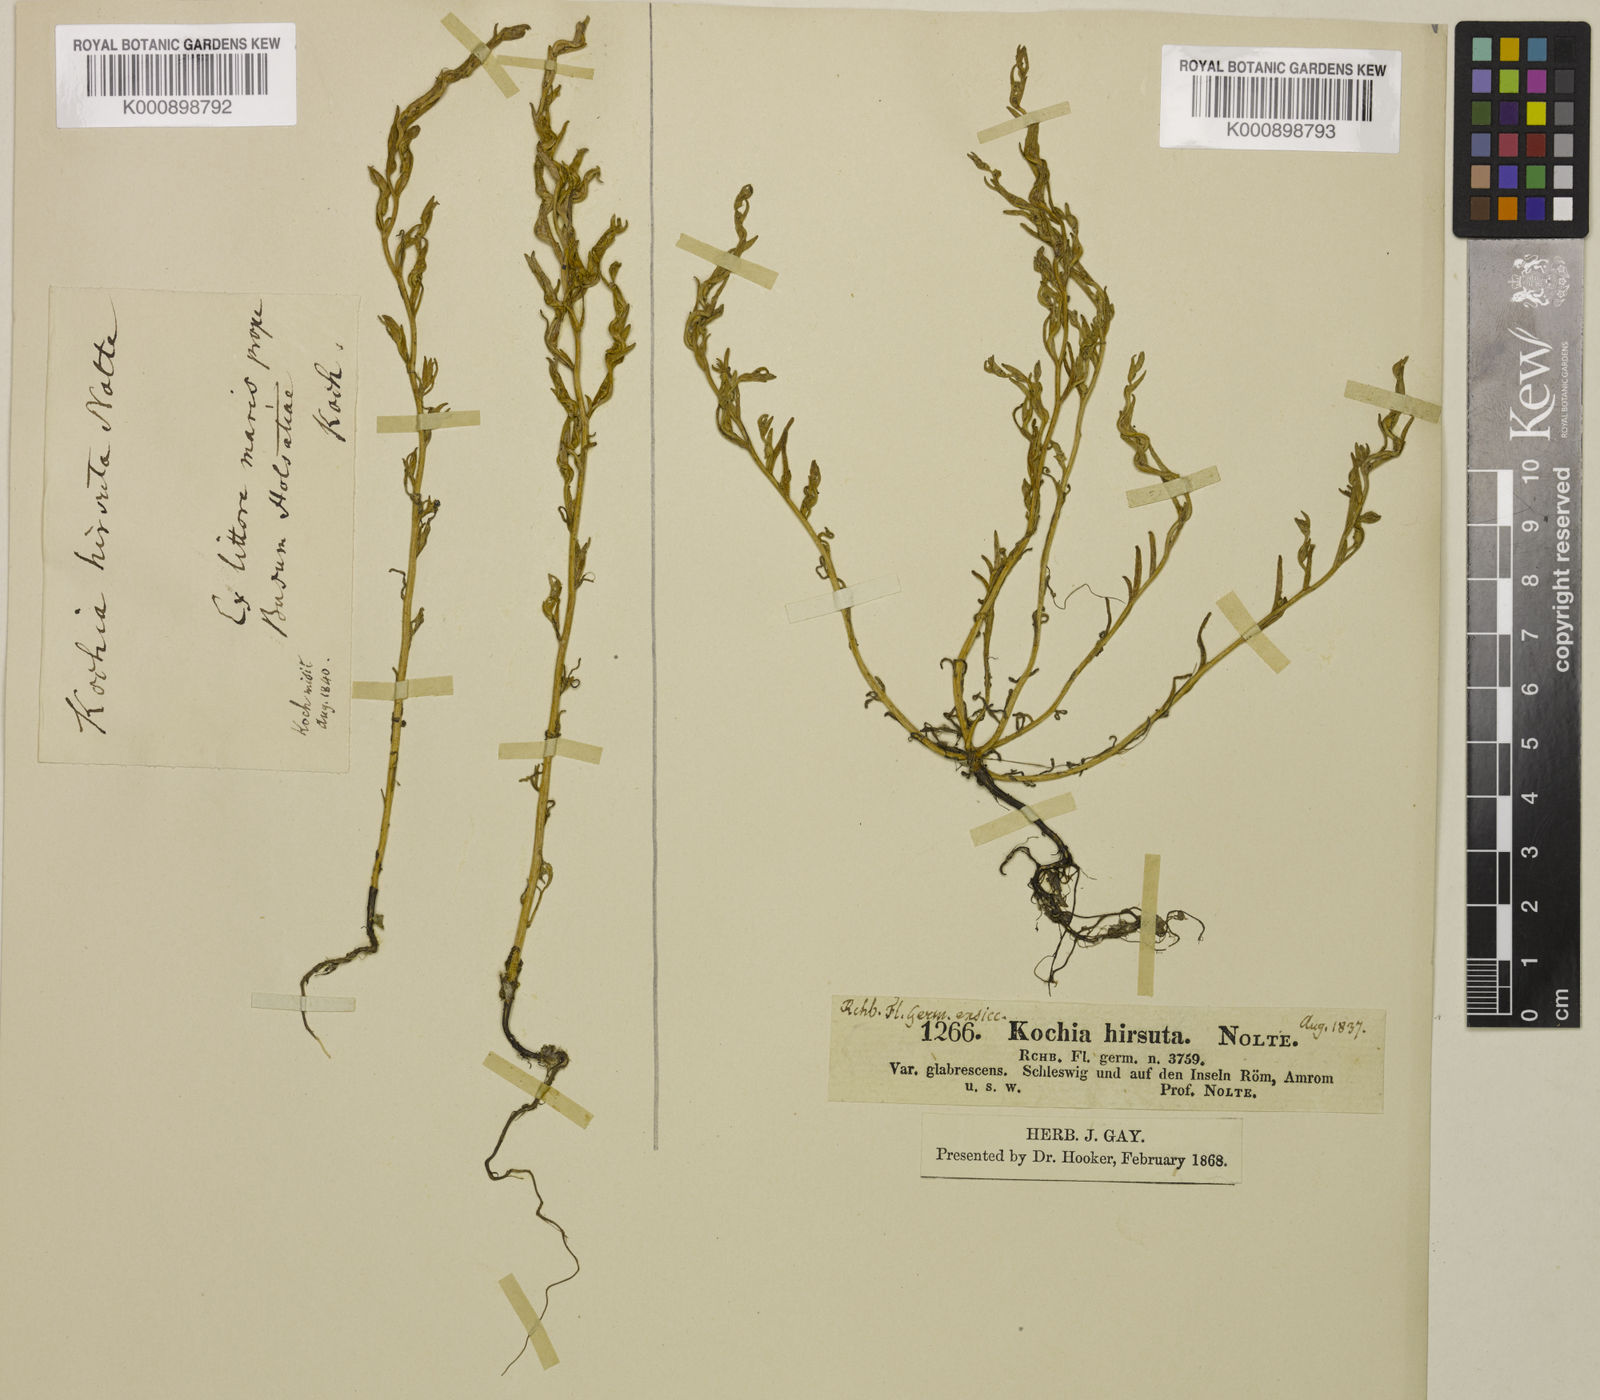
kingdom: Plantae
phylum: Tracheophyta
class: Magnoliopsida
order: Caryophyllales
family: Amaranthaceae
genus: Spirobassia
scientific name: Spirobassia hirsuta
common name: Hairy smotherweed
